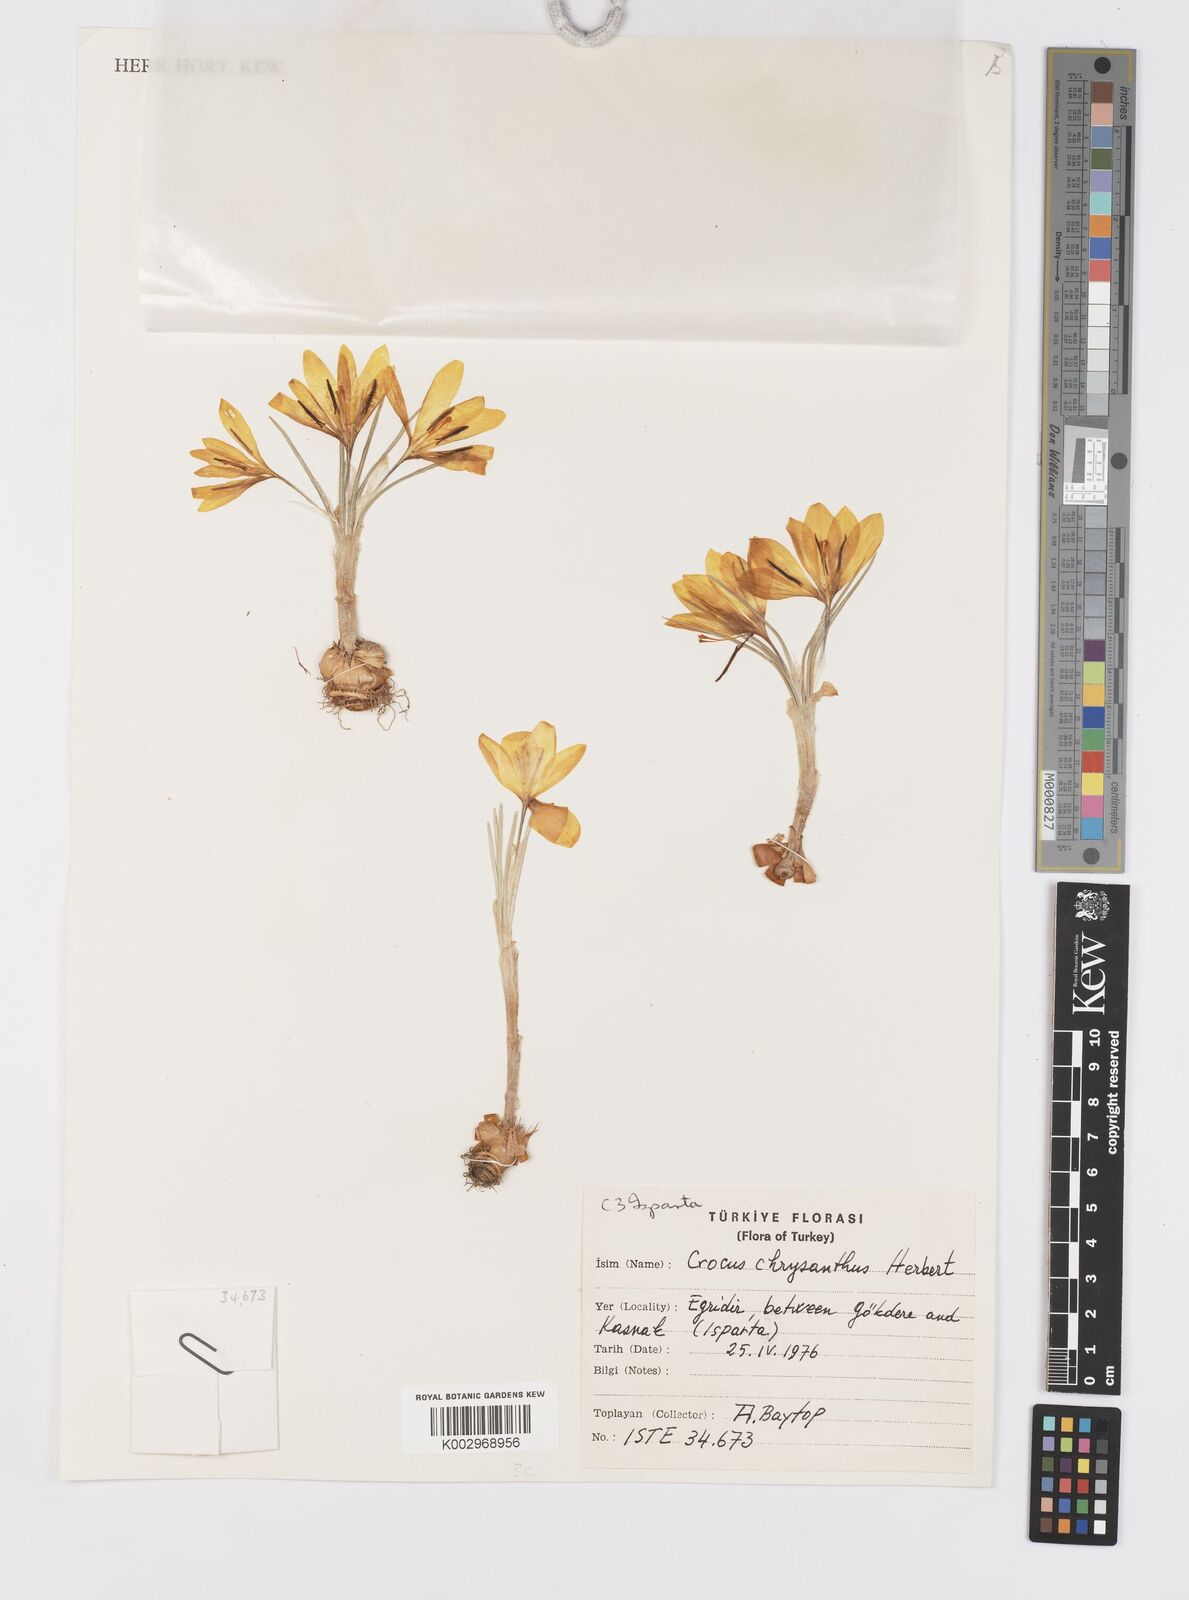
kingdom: Plantae
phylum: Tracheophyta
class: Liliopsida
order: Asparagales
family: Iridaceae
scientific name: Iridaceae
